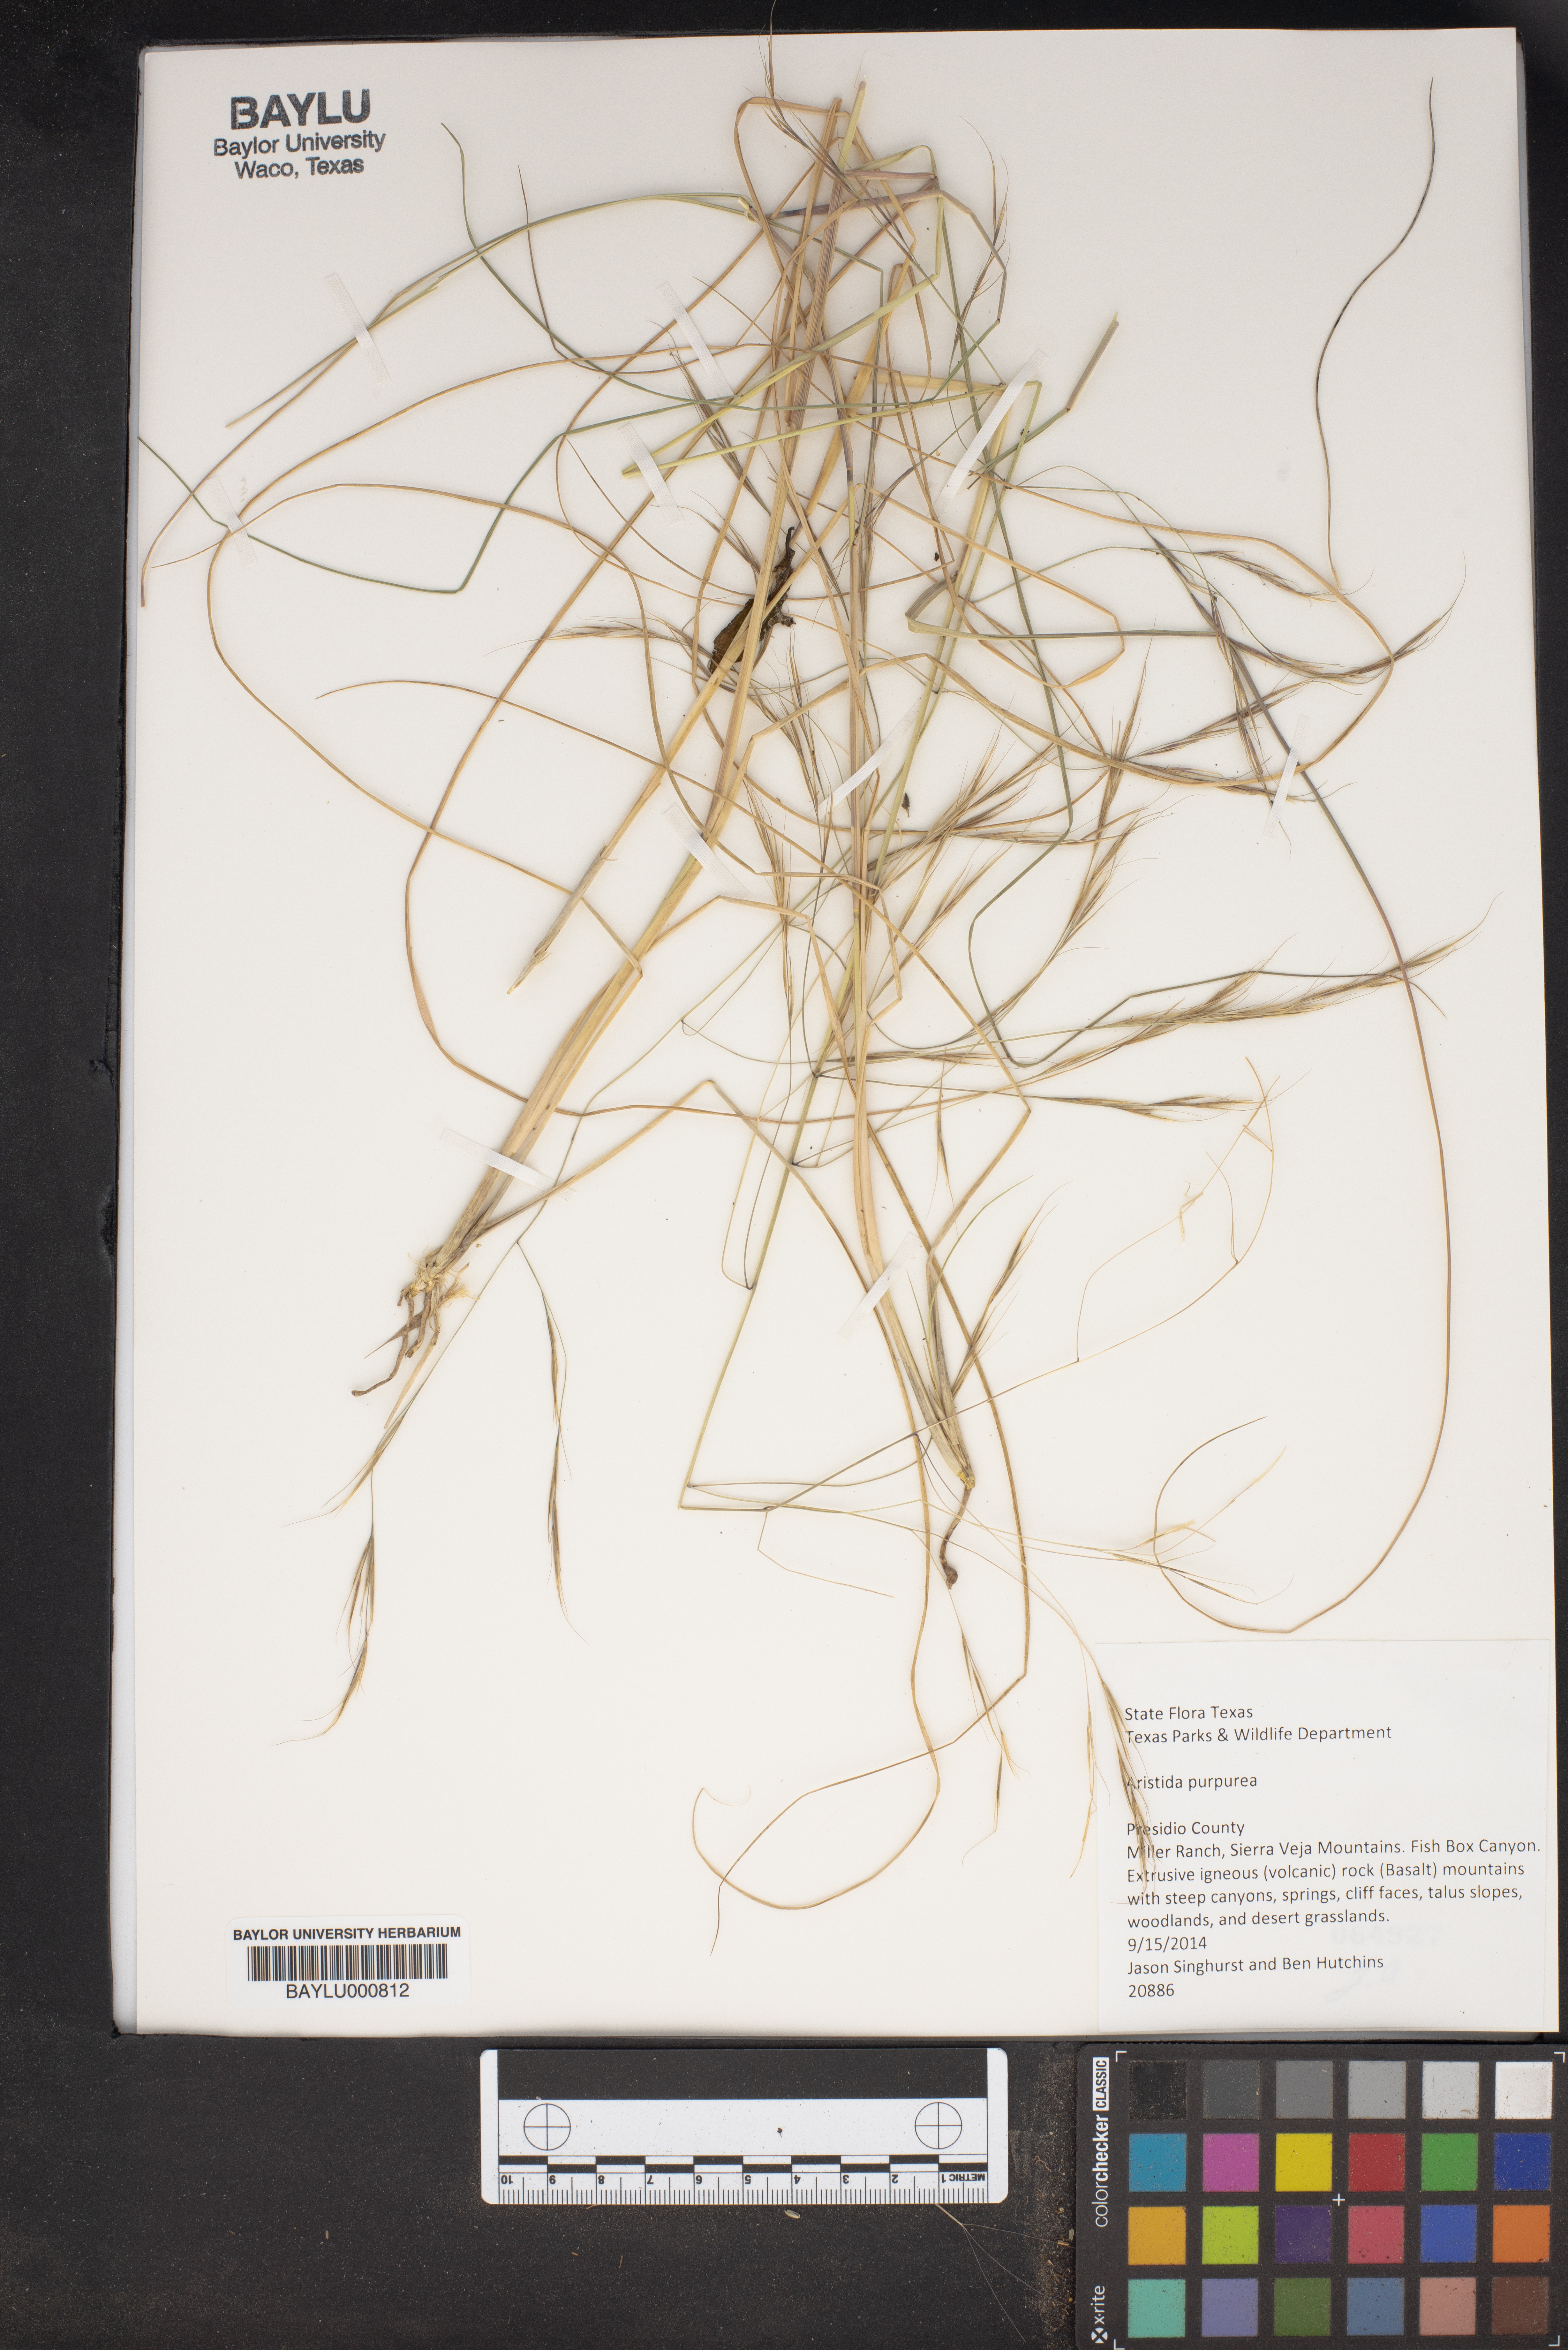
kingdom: Plantae
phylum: Tracheophyta
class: Liliopsida
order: Poales
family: Poaceae
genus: Aristida
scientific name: Aristida purpurea
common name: Purple threeawn
